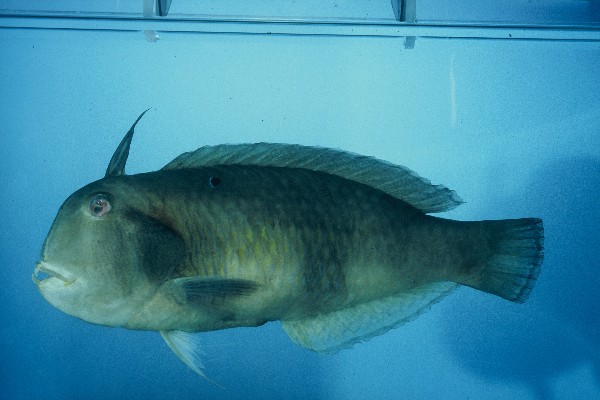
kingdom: Animalia
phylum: Chordata
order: Perciformes
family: Labridae
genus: Iniistius
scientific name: Iniistius pavo
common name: Peacock wrasse
